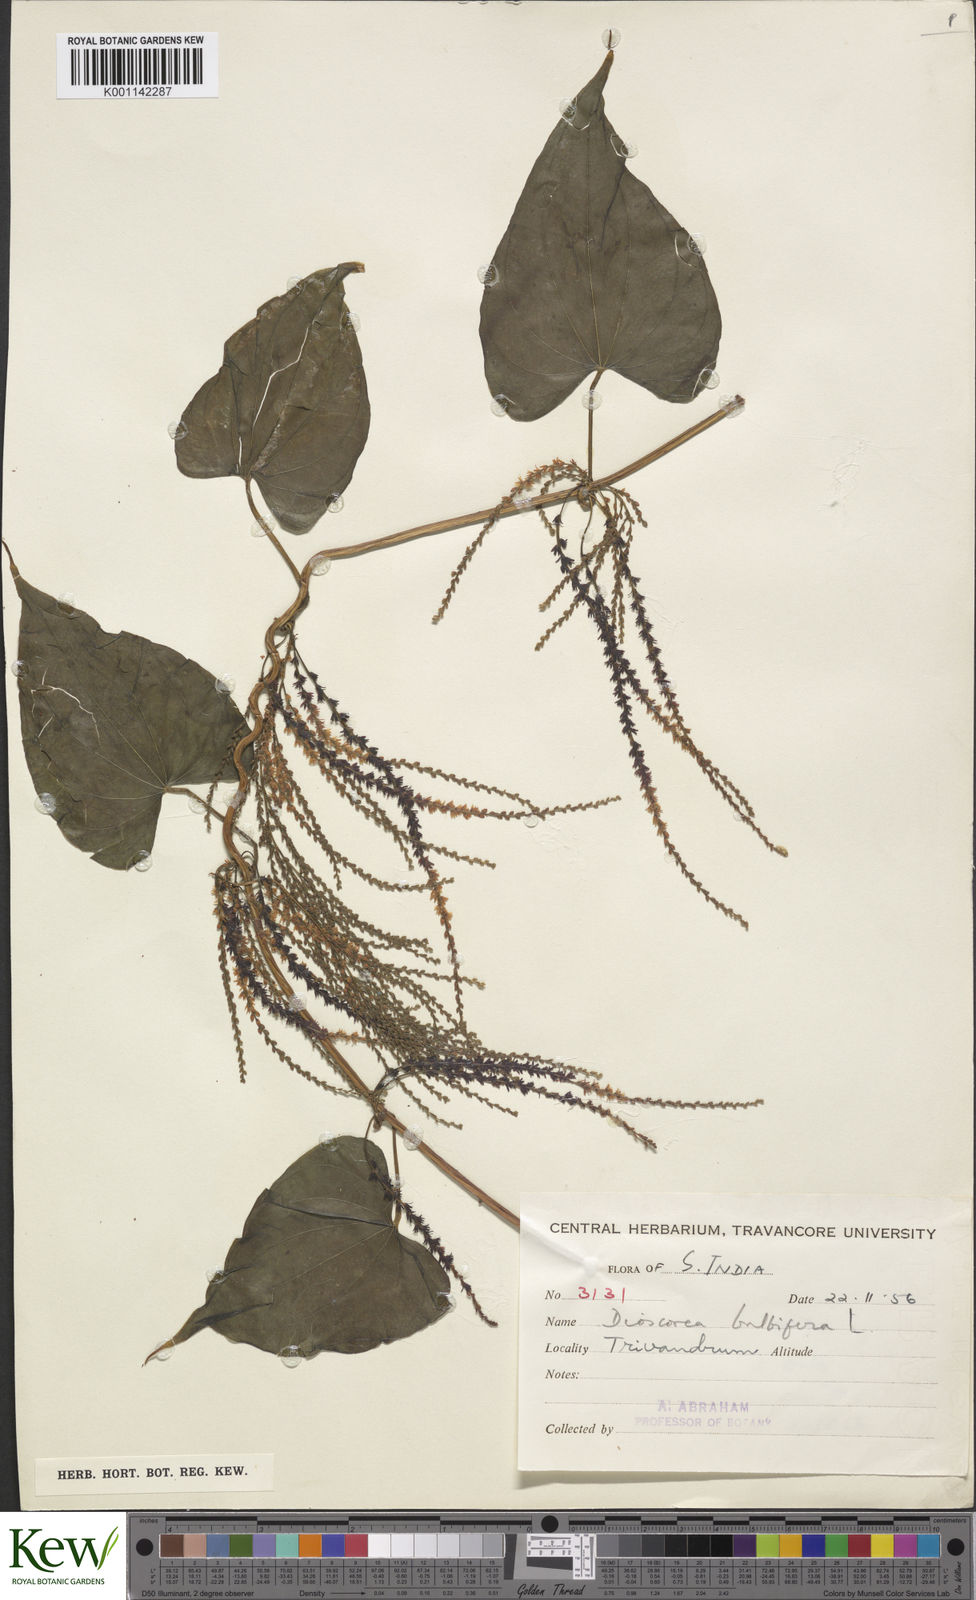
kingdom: Plantae
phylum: Tracheophyta
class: Liliopsida
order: Dioscoreales
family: Dioscoreaceae
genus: Dioscorea
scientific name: Dioscorea bulbifera
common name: Air yam
